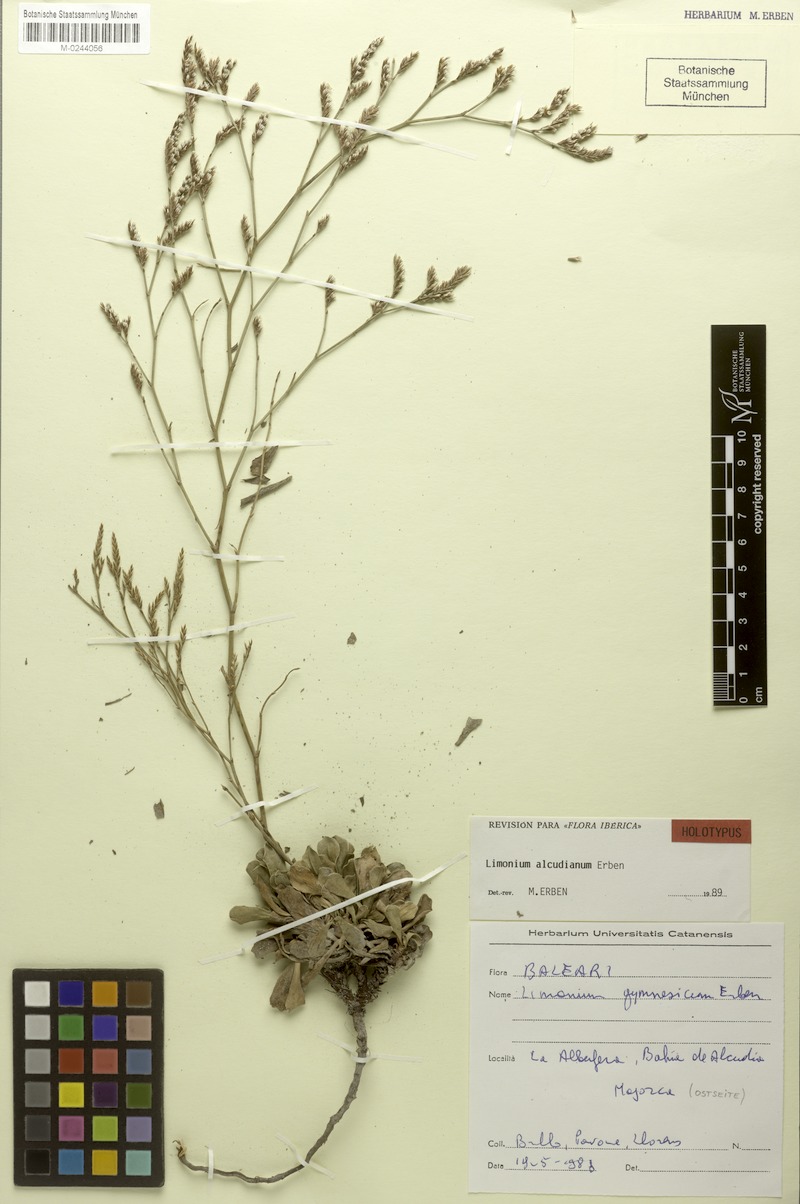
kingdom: Plantae
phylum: Tracheophyta
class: Magnoliopsida
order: Caryophyllales
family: Plumbaginaceae
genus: Limonium
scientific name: Limonium alcudianum
